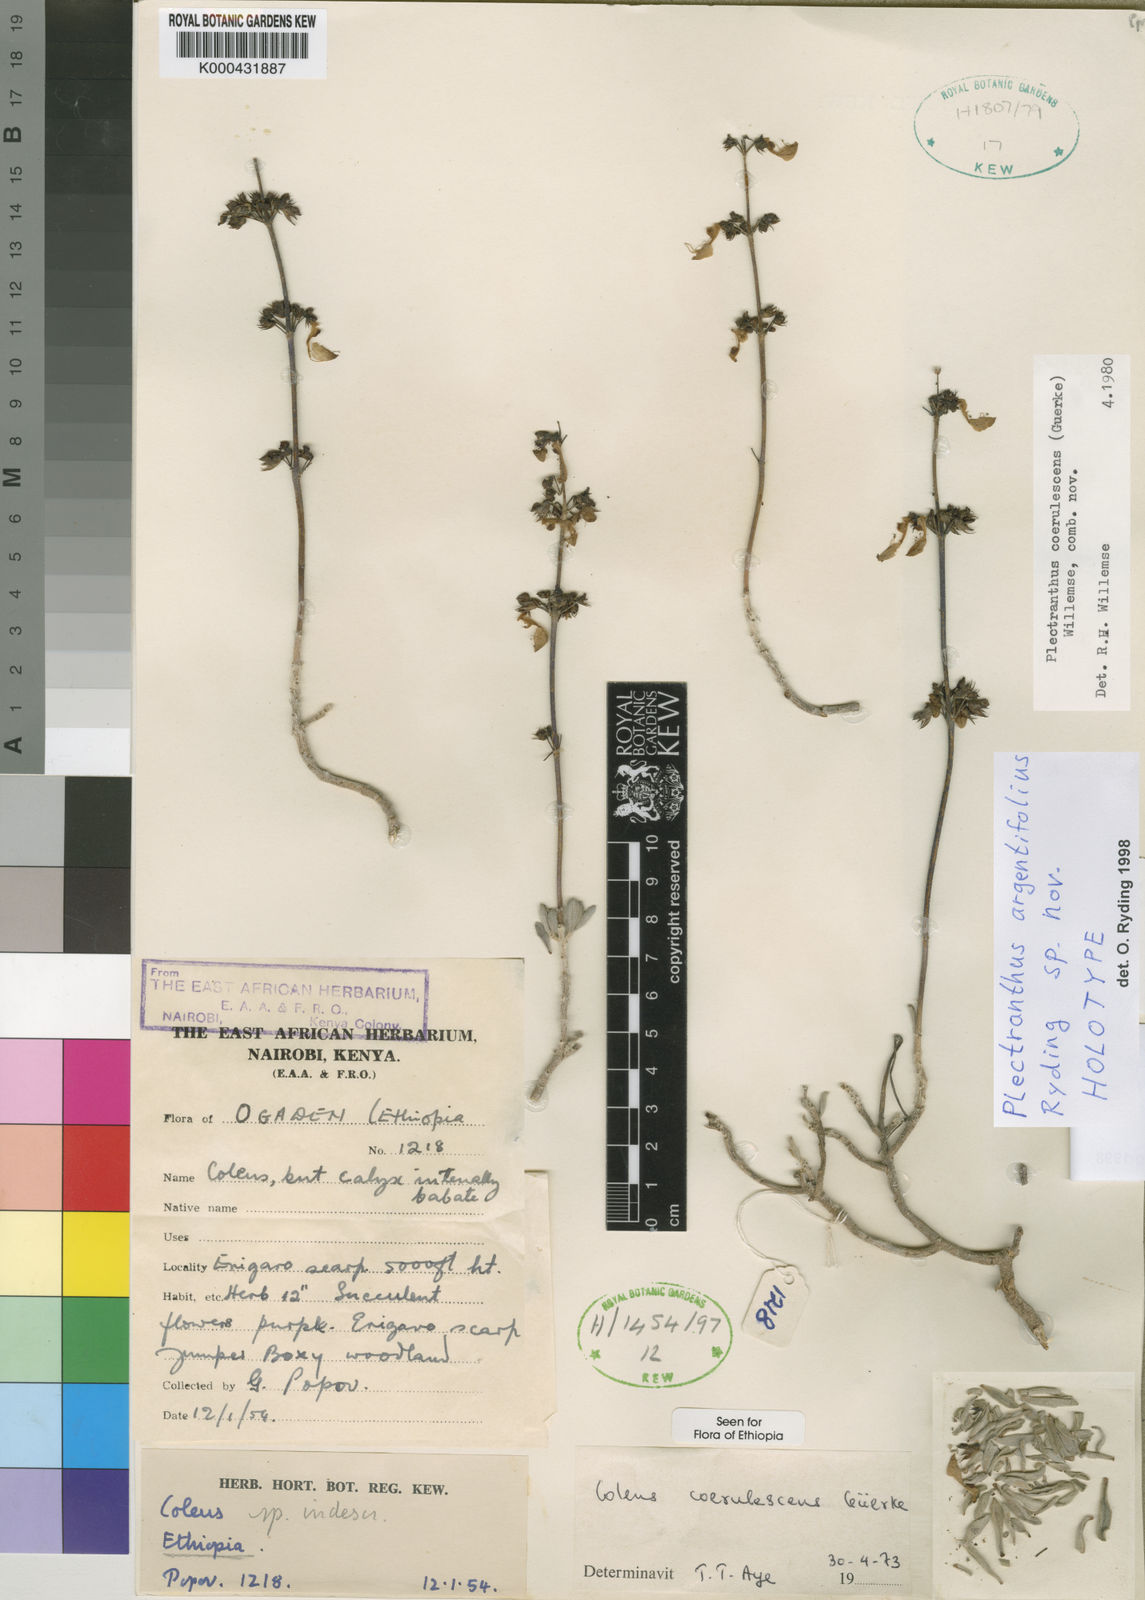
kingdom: Plantae
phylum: Tracheophyta
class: Magnoliopsida
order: Lamiales
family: Lamiaceae
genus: Coleus
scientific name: Coleus argentifolius
